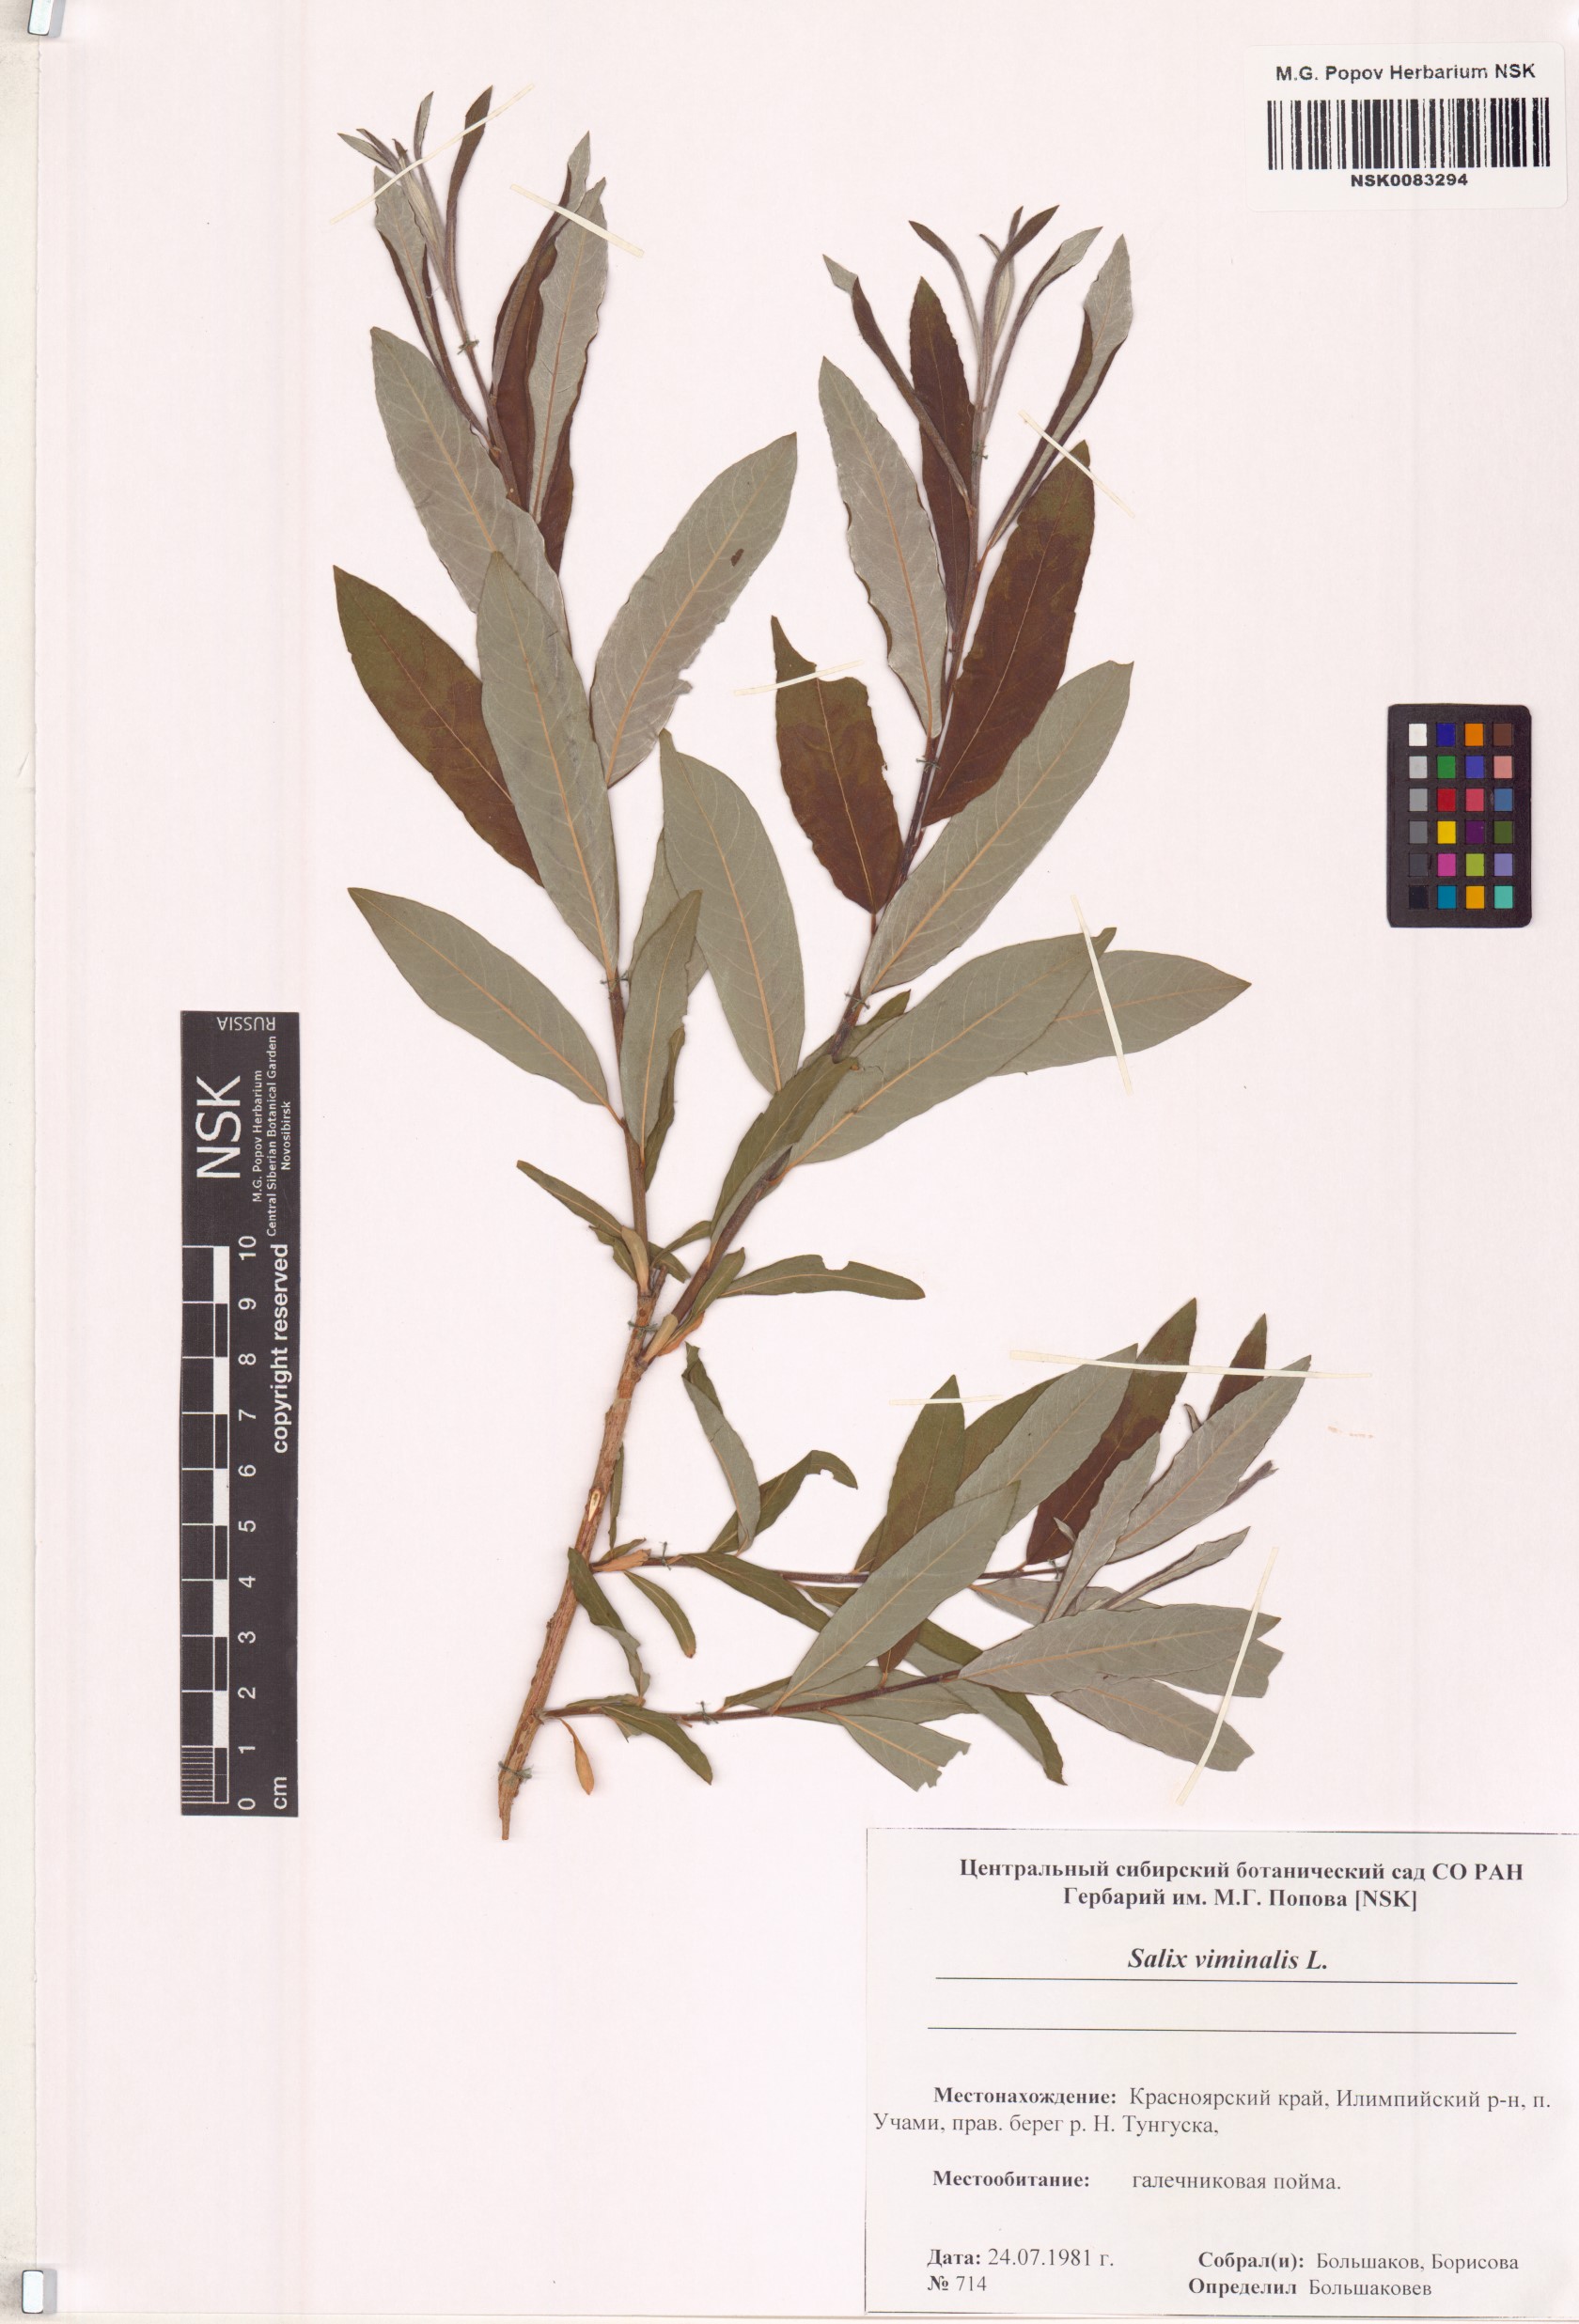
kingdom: Plantae
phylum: Tracheophyta
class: Magnoliopsida
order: Malpighiales
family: Salicaceae
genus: Salix
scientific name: Salix viminalis
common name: Osier
